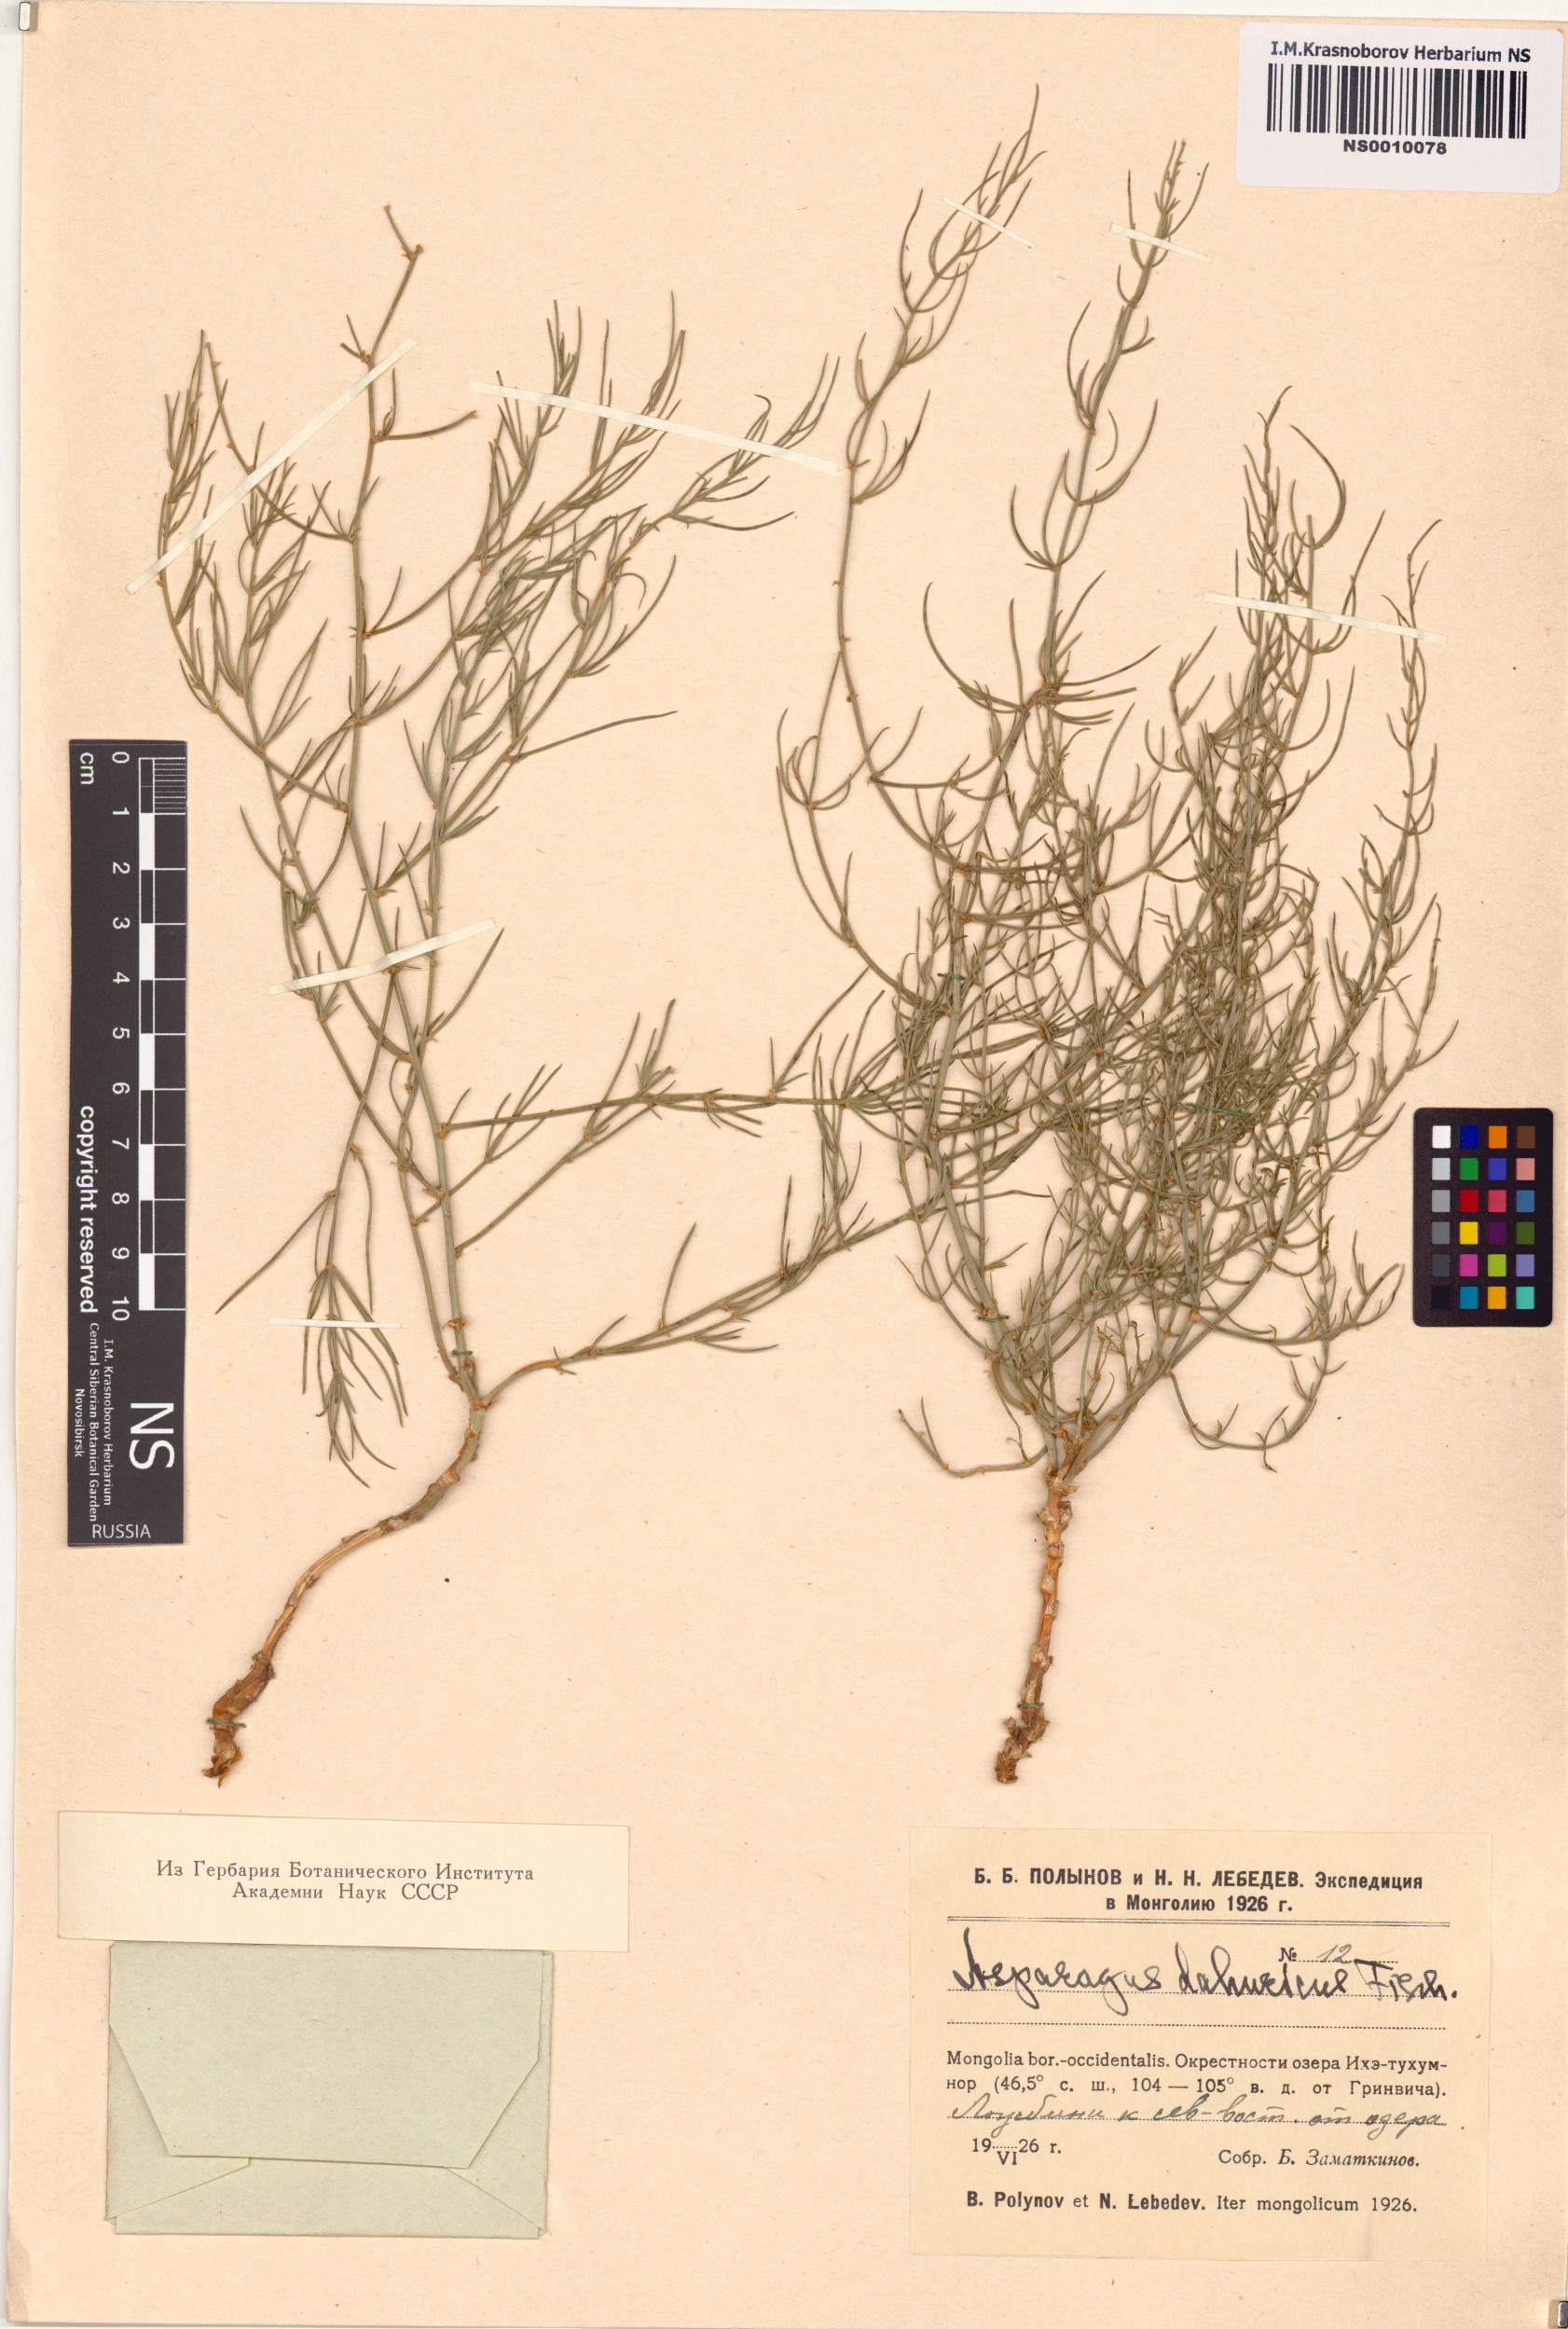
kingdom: Plantae
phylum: Tracheophyta
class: Liliopsida
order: Asparagales
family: Asparagaceae
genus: Asparagus
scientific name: Asparagus dauricus
